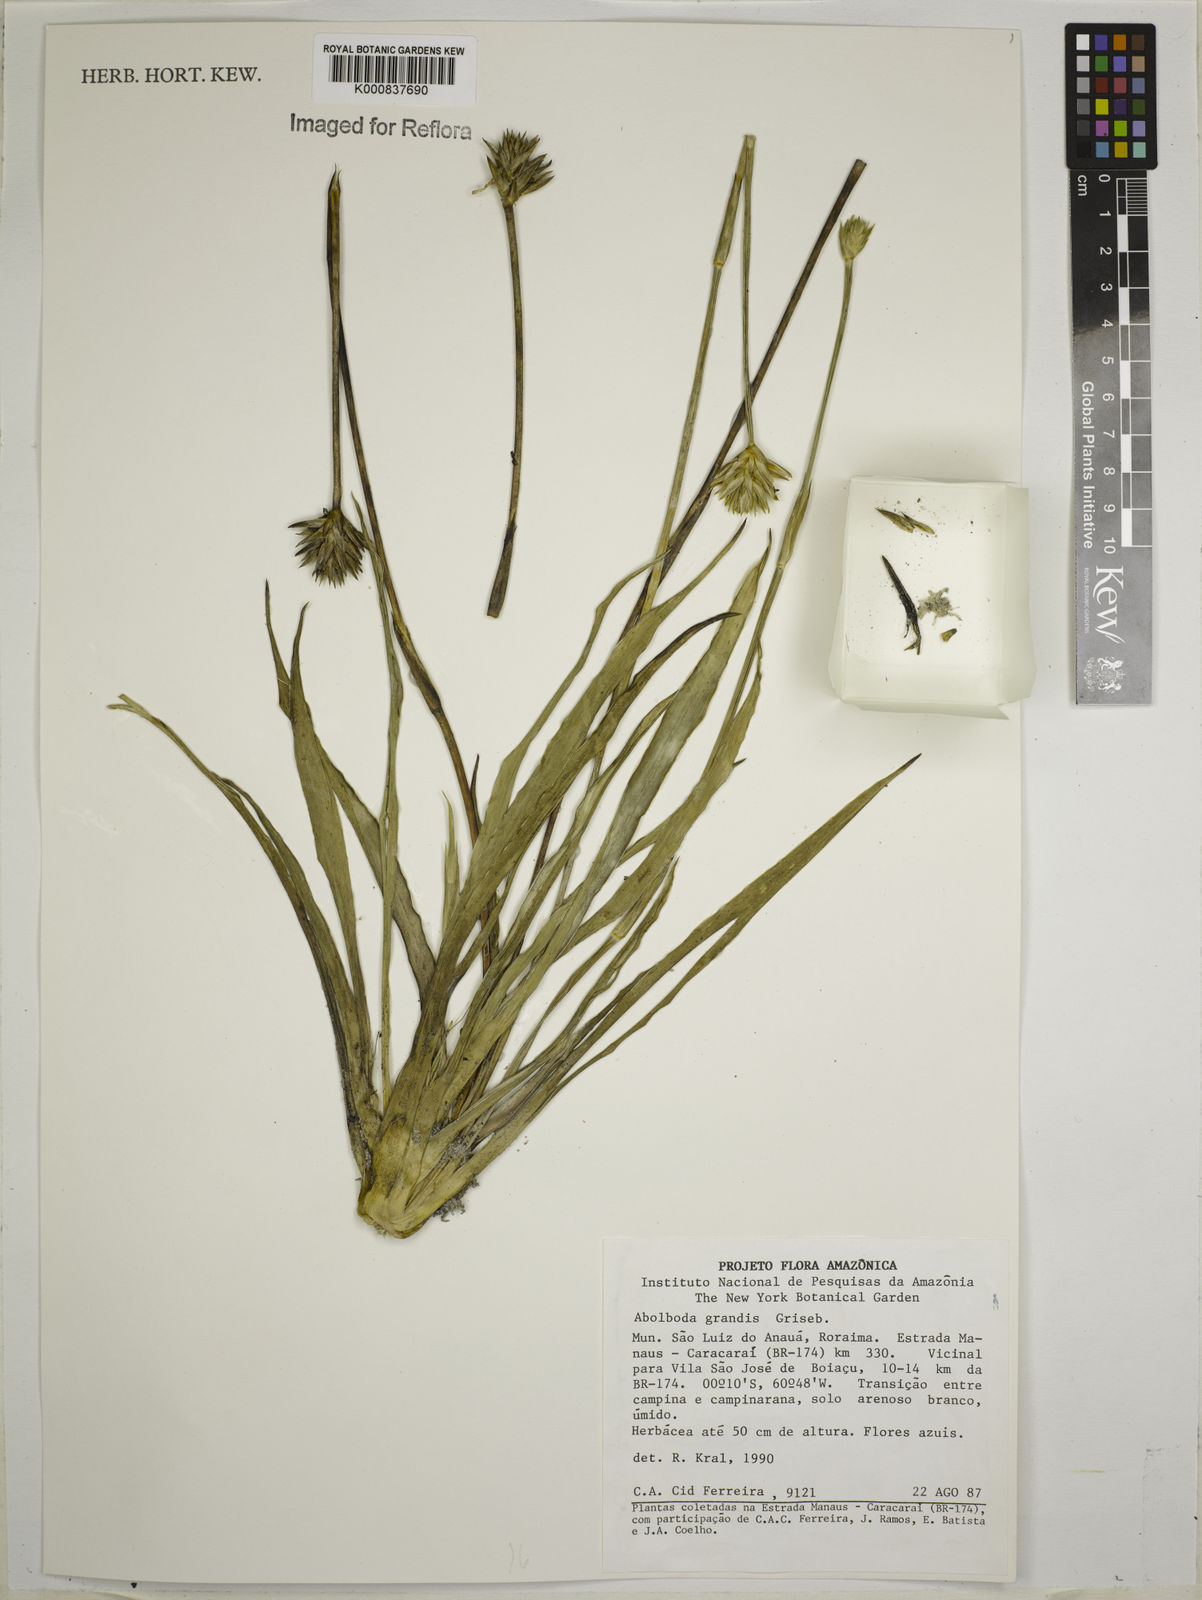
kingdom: Plantae
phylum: Tracheophyta
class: Liliopsida
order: Poales
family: Xyridaceae
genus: Abolboda
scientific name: Abolboda grandis
